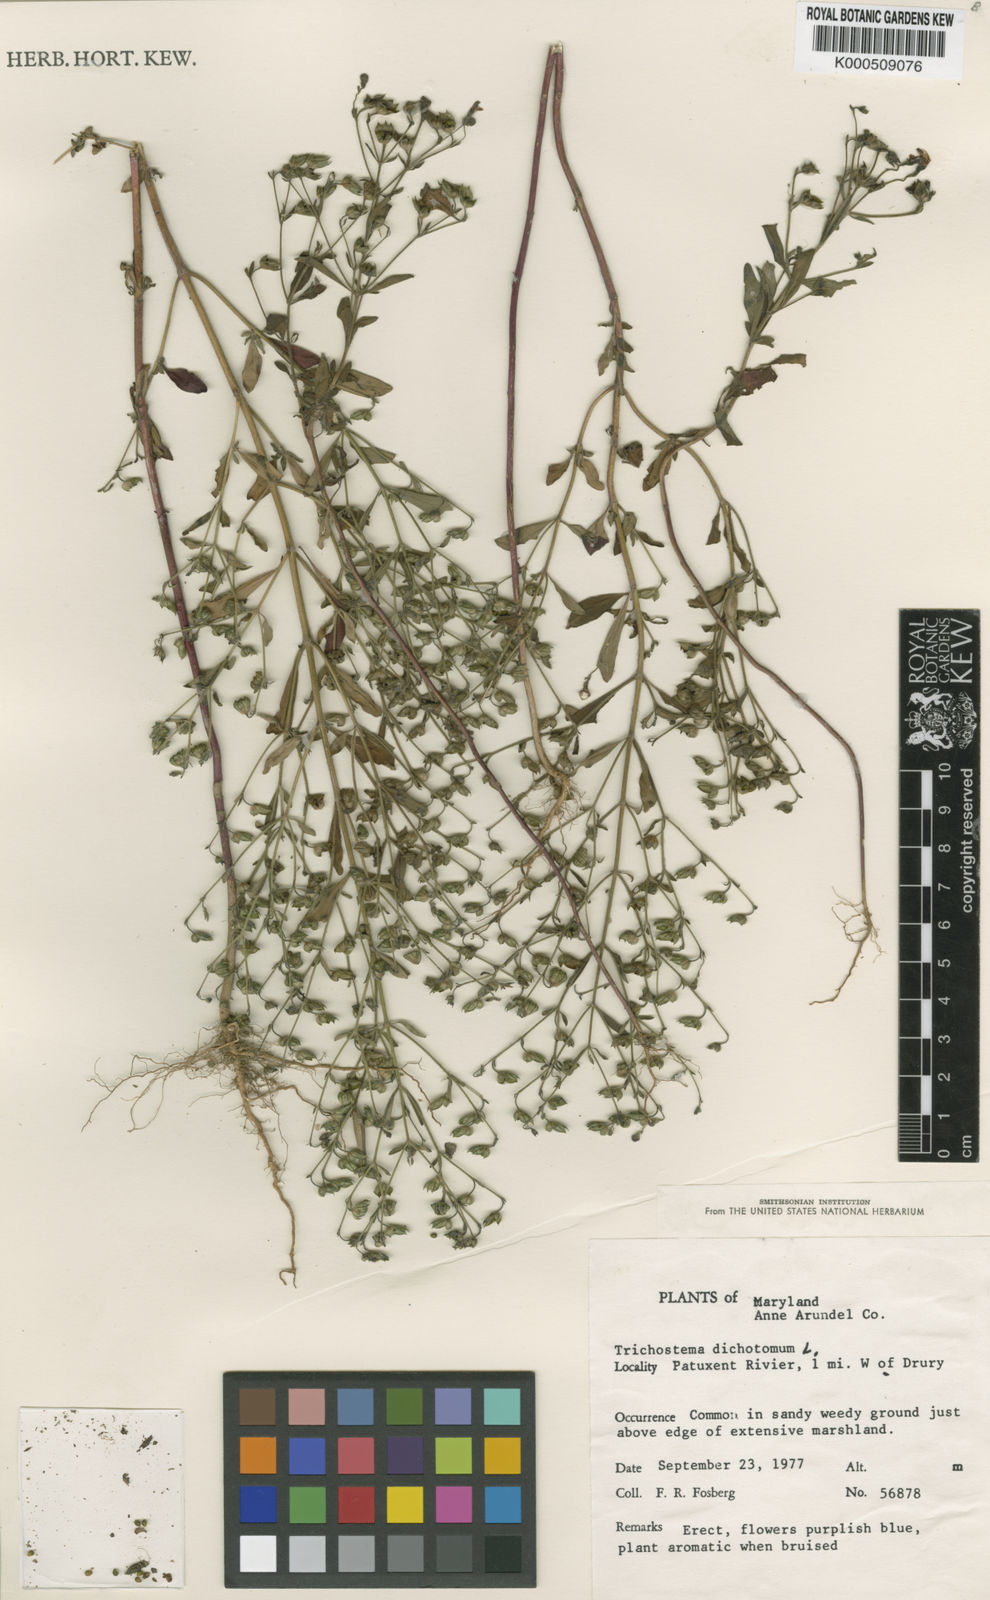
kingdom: Plantae
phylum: Tracheophyta
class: Magnoliopsida
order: Lamiales
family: Lamiaceae
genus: Trichostema
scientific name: Trichostema dichotomum
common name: Bastard pennyroyal
